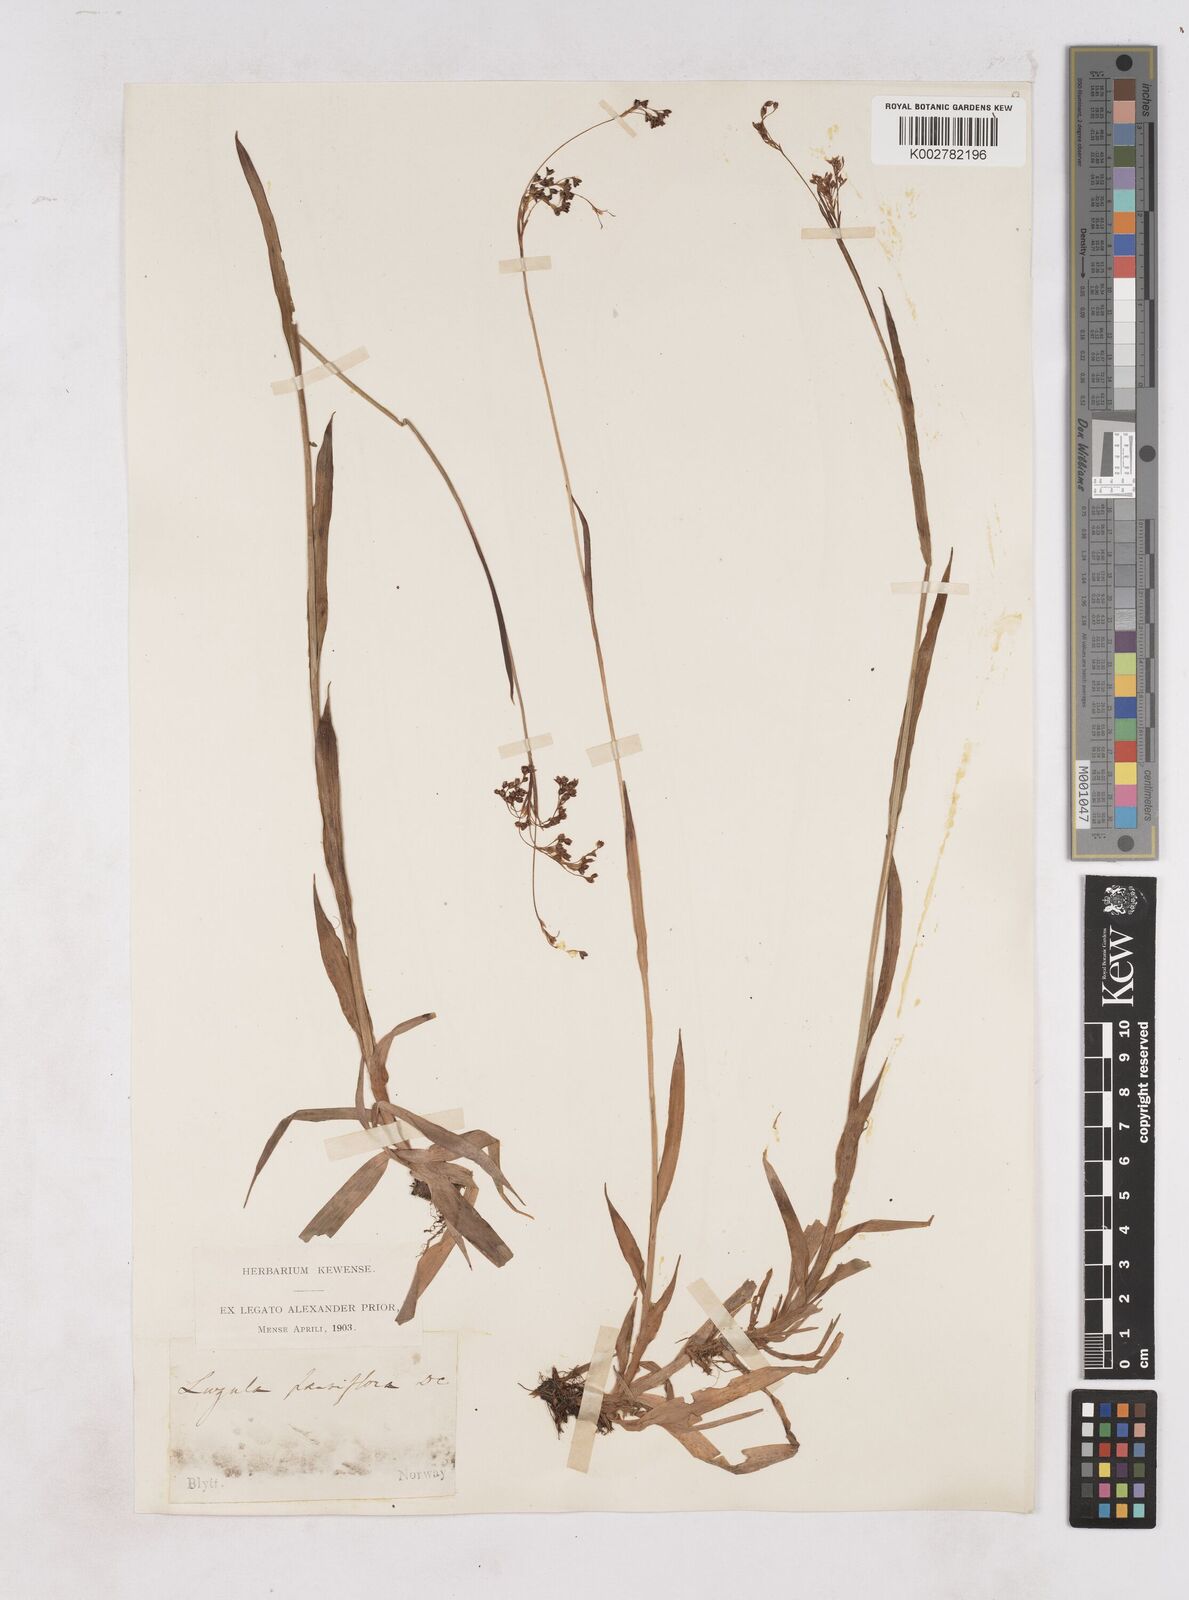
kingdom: Plantae
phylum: Tracheophyta
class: Liliopsida
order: Poales
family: Juncaceae
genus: Luzula
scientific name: Luzula parviflora
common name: Millet woodrush
